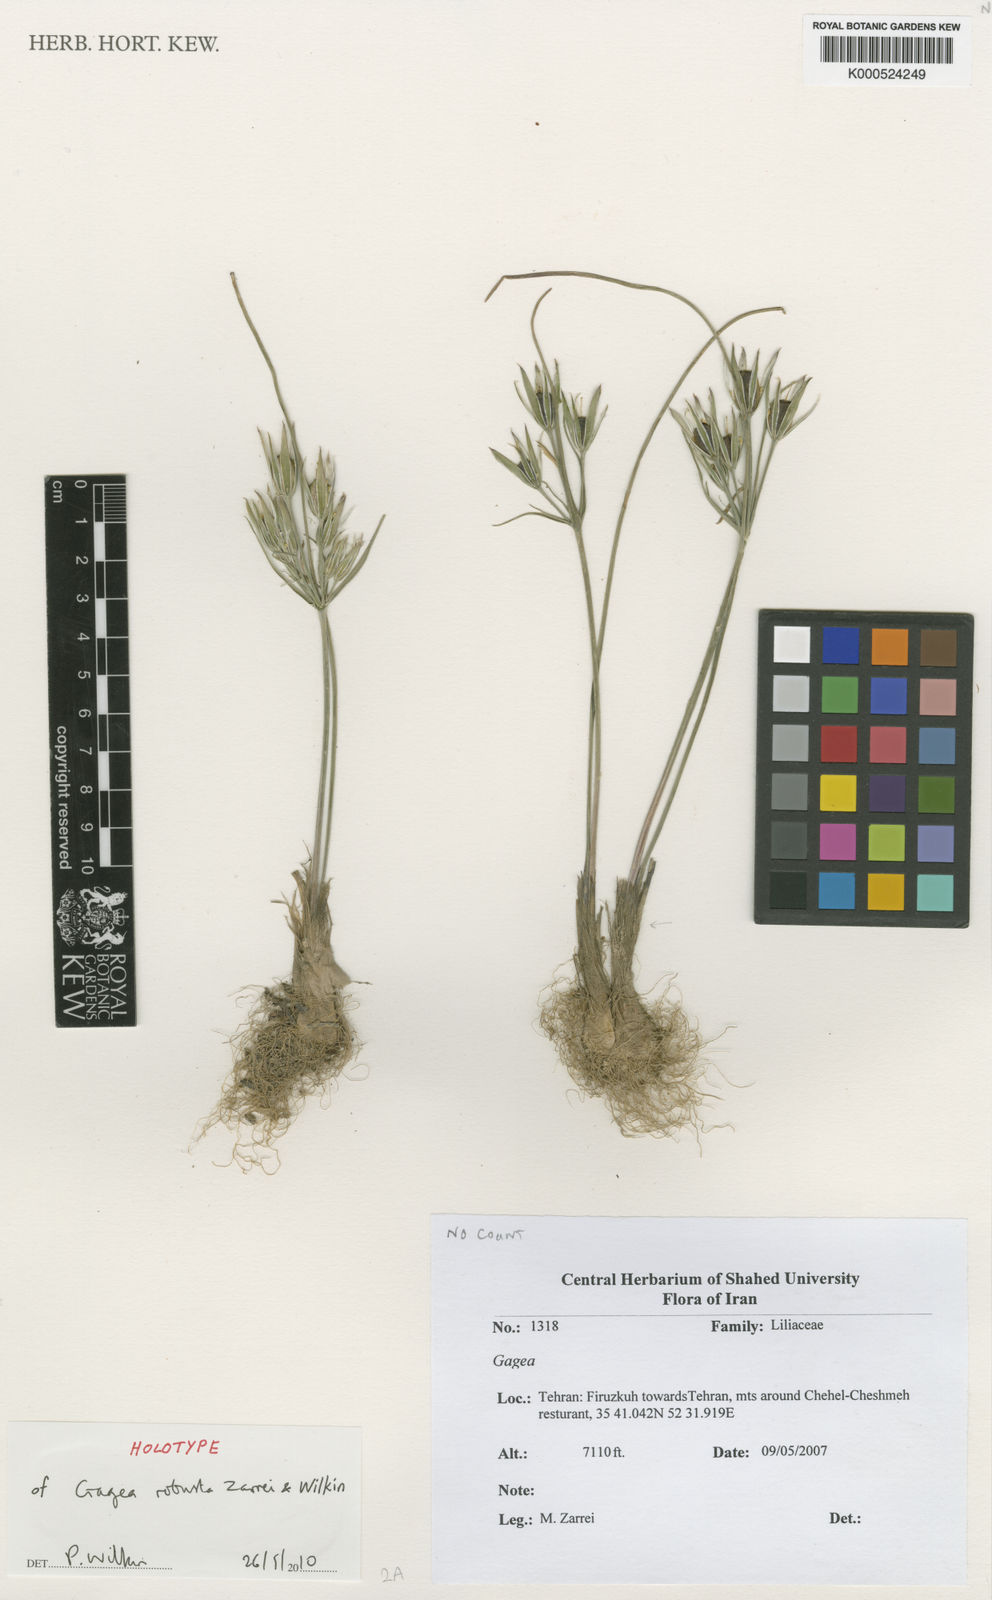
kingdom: Plantae
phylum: Tracheophyta
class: Liliopsida
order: Liliales
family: Liliaceae
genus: Gagea
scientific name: Gagea robusta
